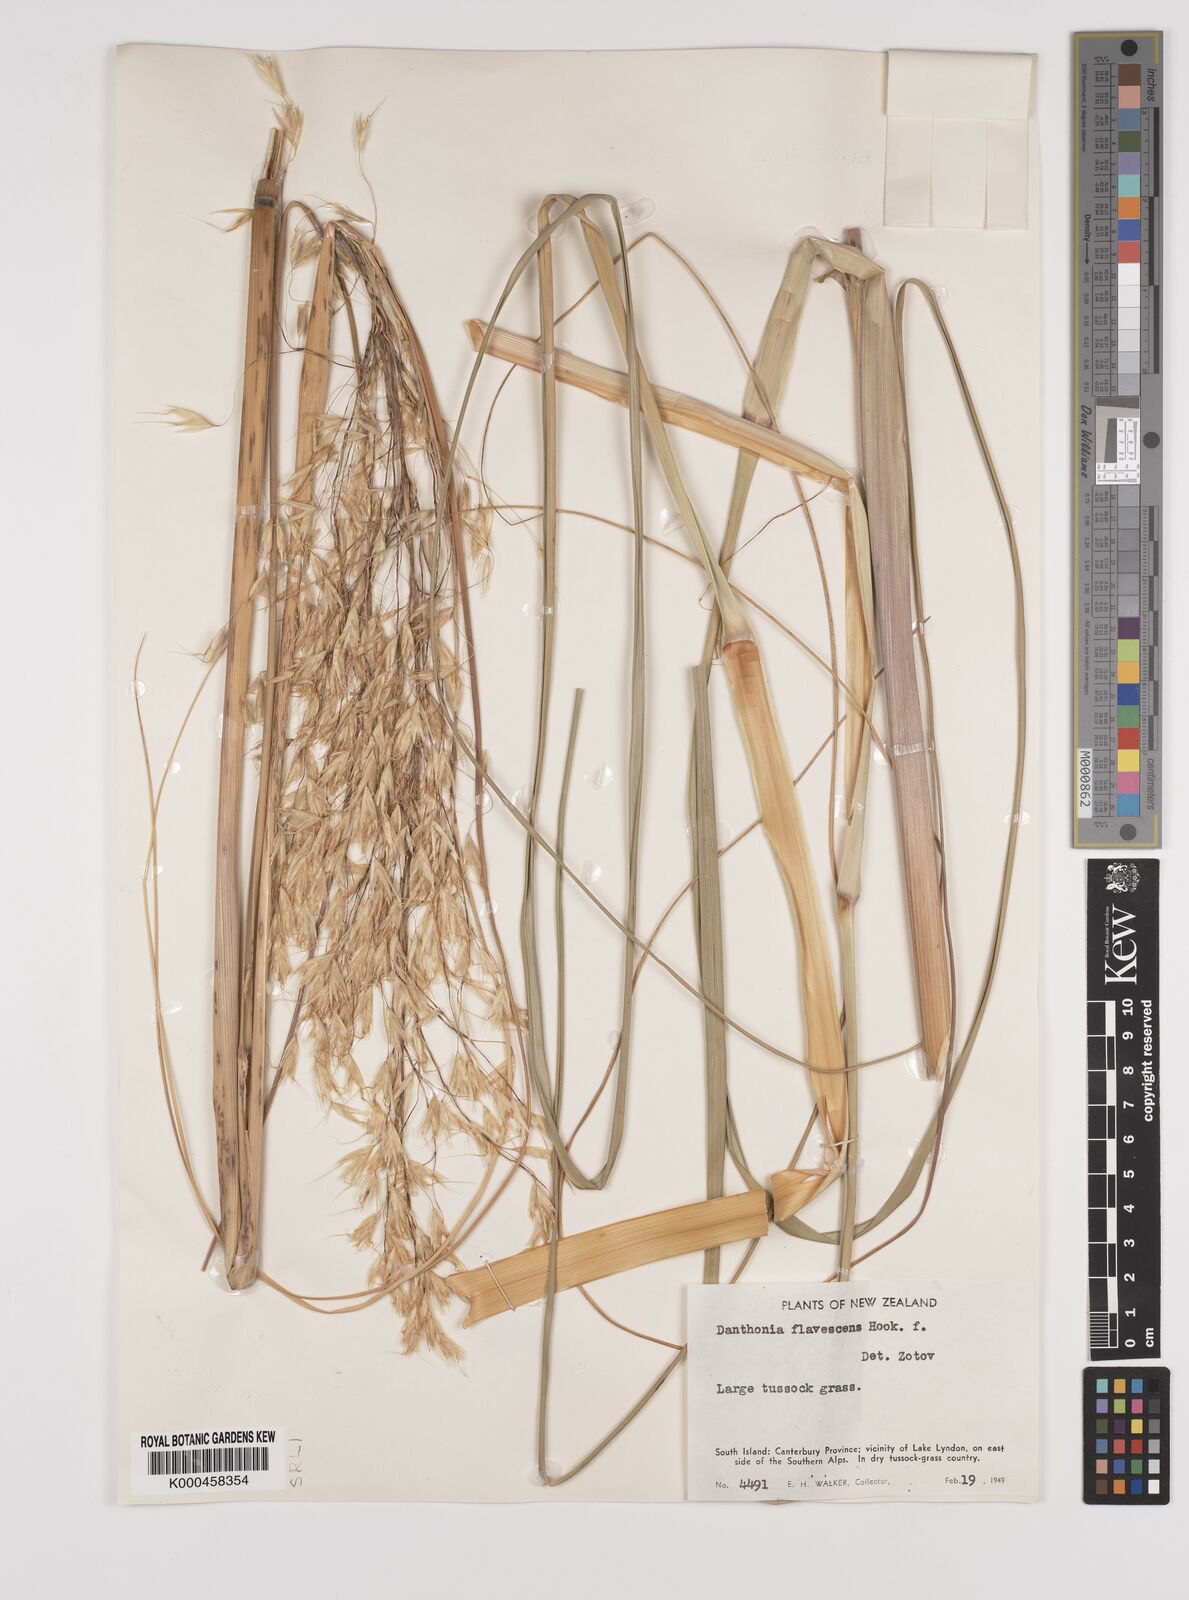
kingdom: Plantae
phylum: Tracheophyta
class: Liliopsida
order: Poales
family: Poaceae
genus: Chionochloa
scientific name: Chionochloa rigida
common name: Narrow leaved snow tussock
